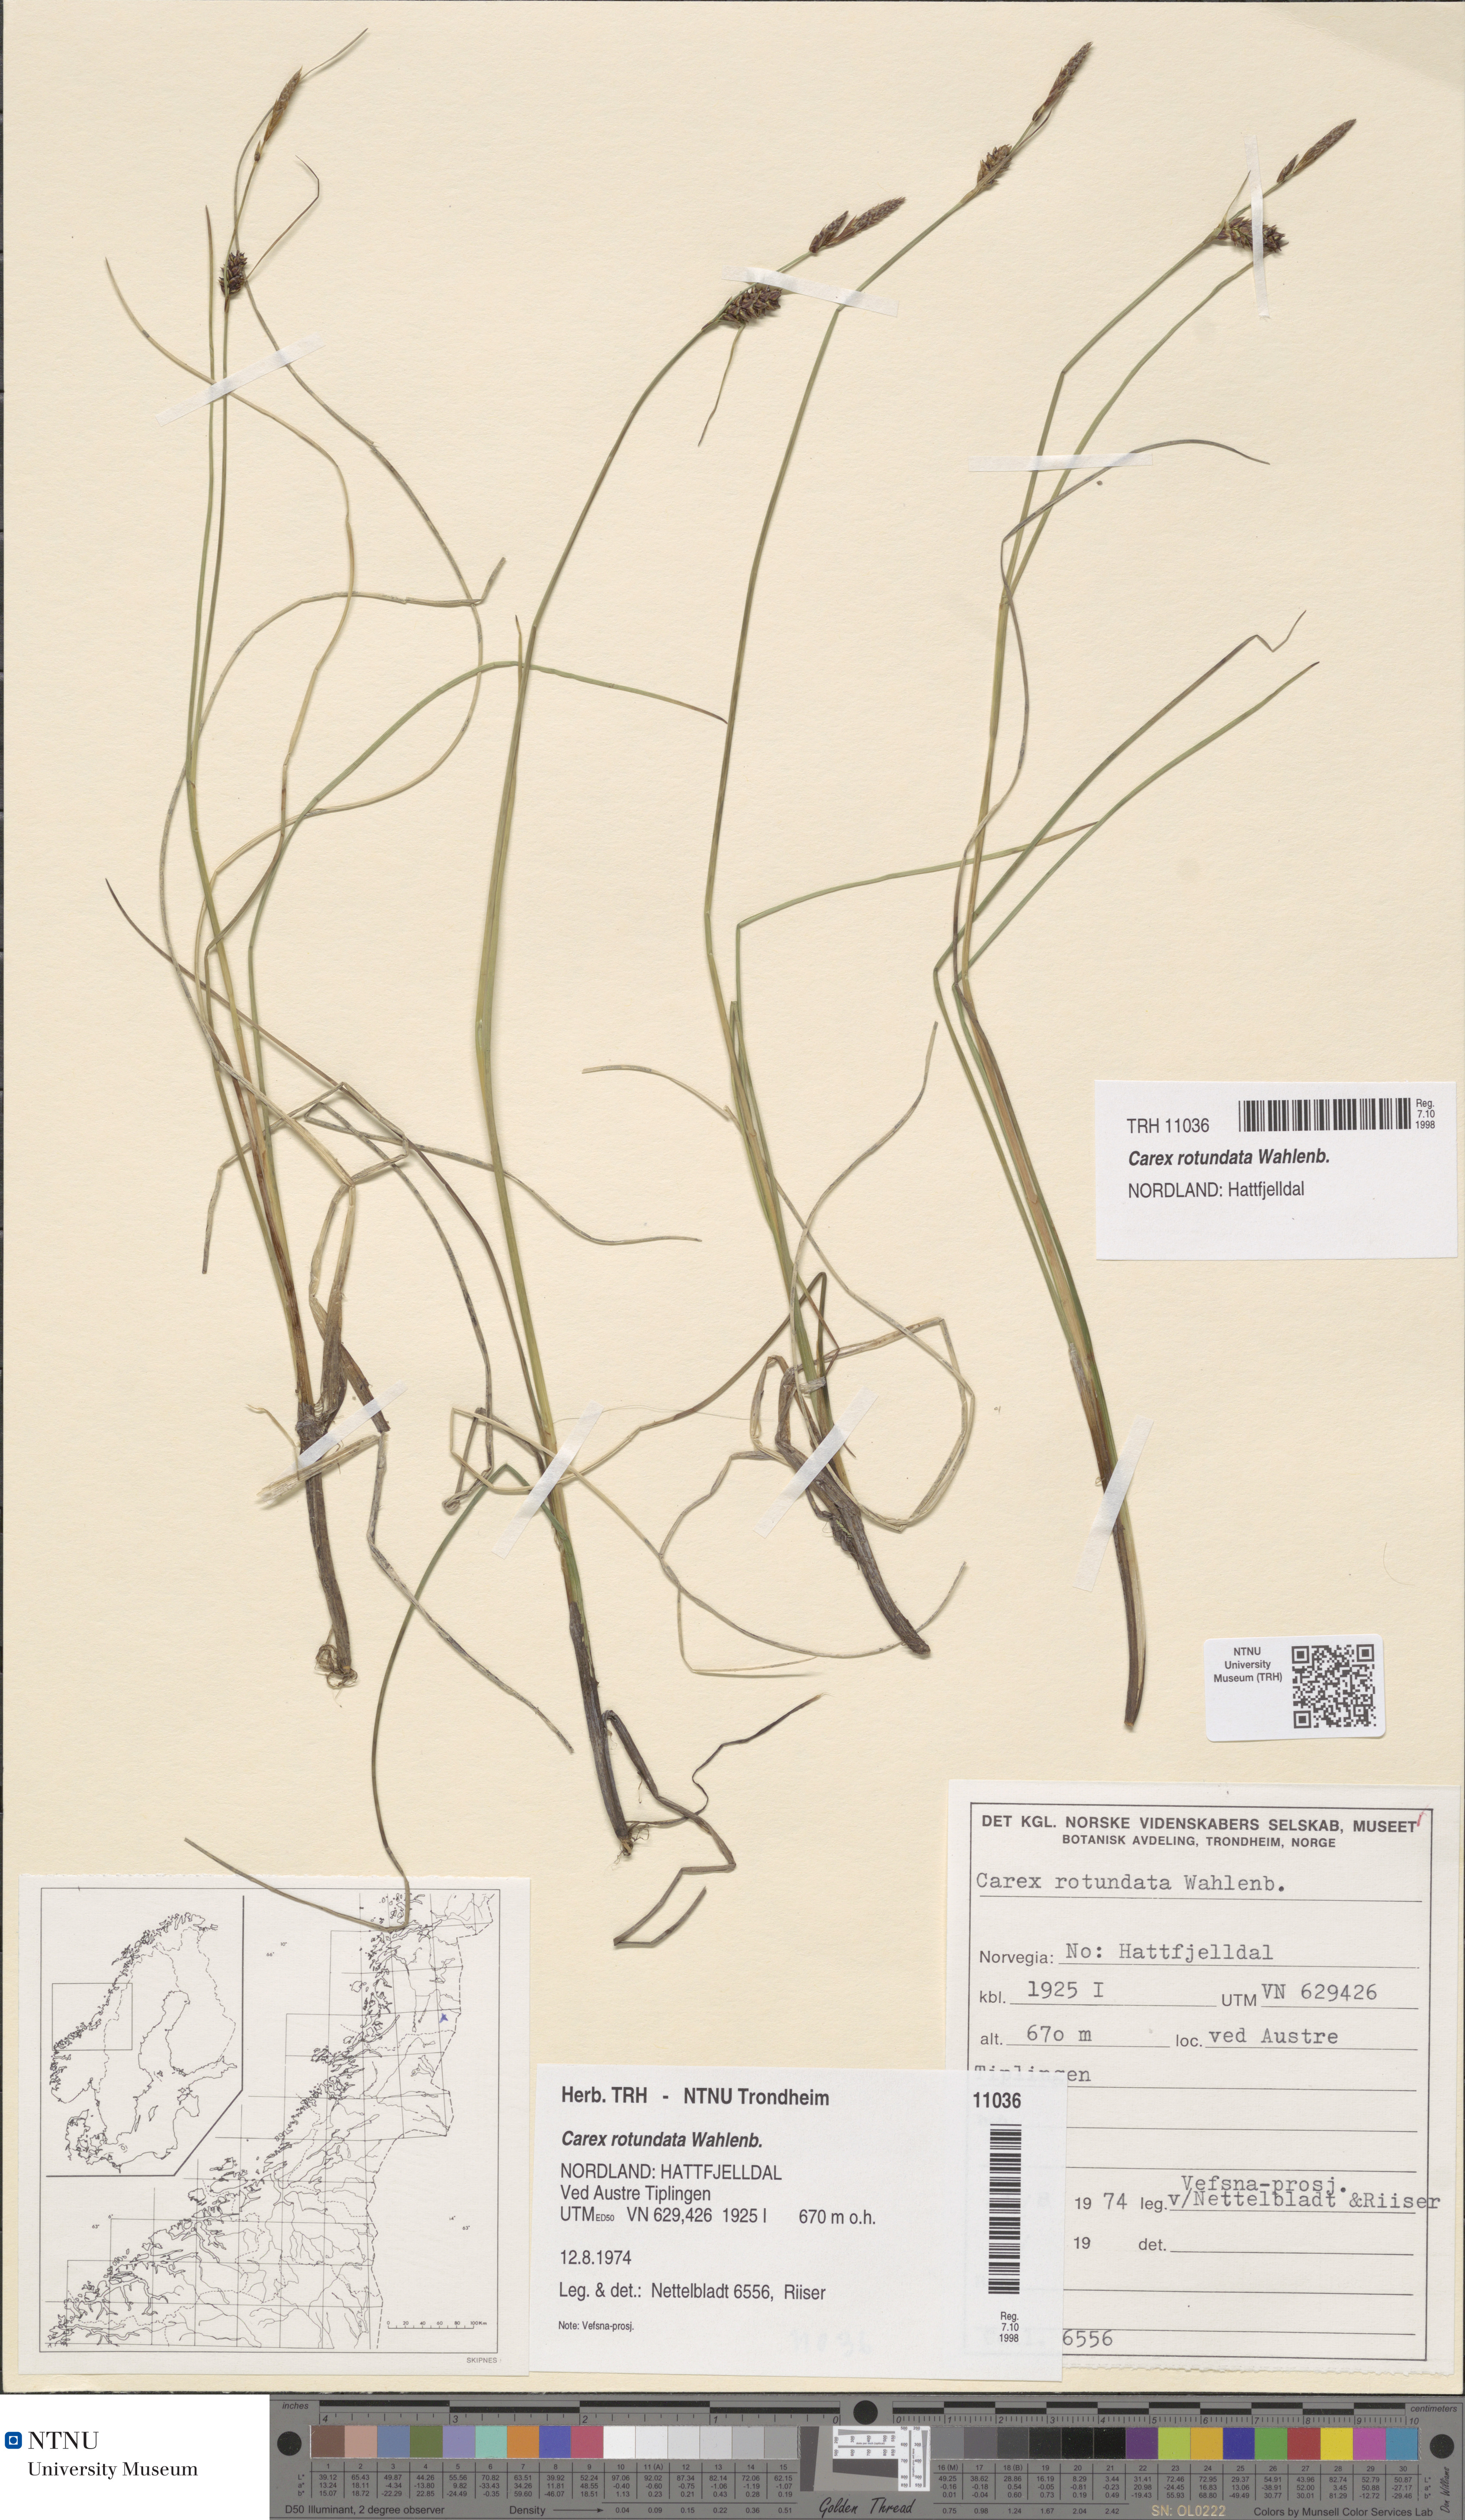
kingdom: Plantae
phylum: Tracheophyta
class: Liliopsida
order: Poales
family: Cyperaceae
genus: Carex
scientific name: Carex rotundata
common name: Round-fruited sedge
